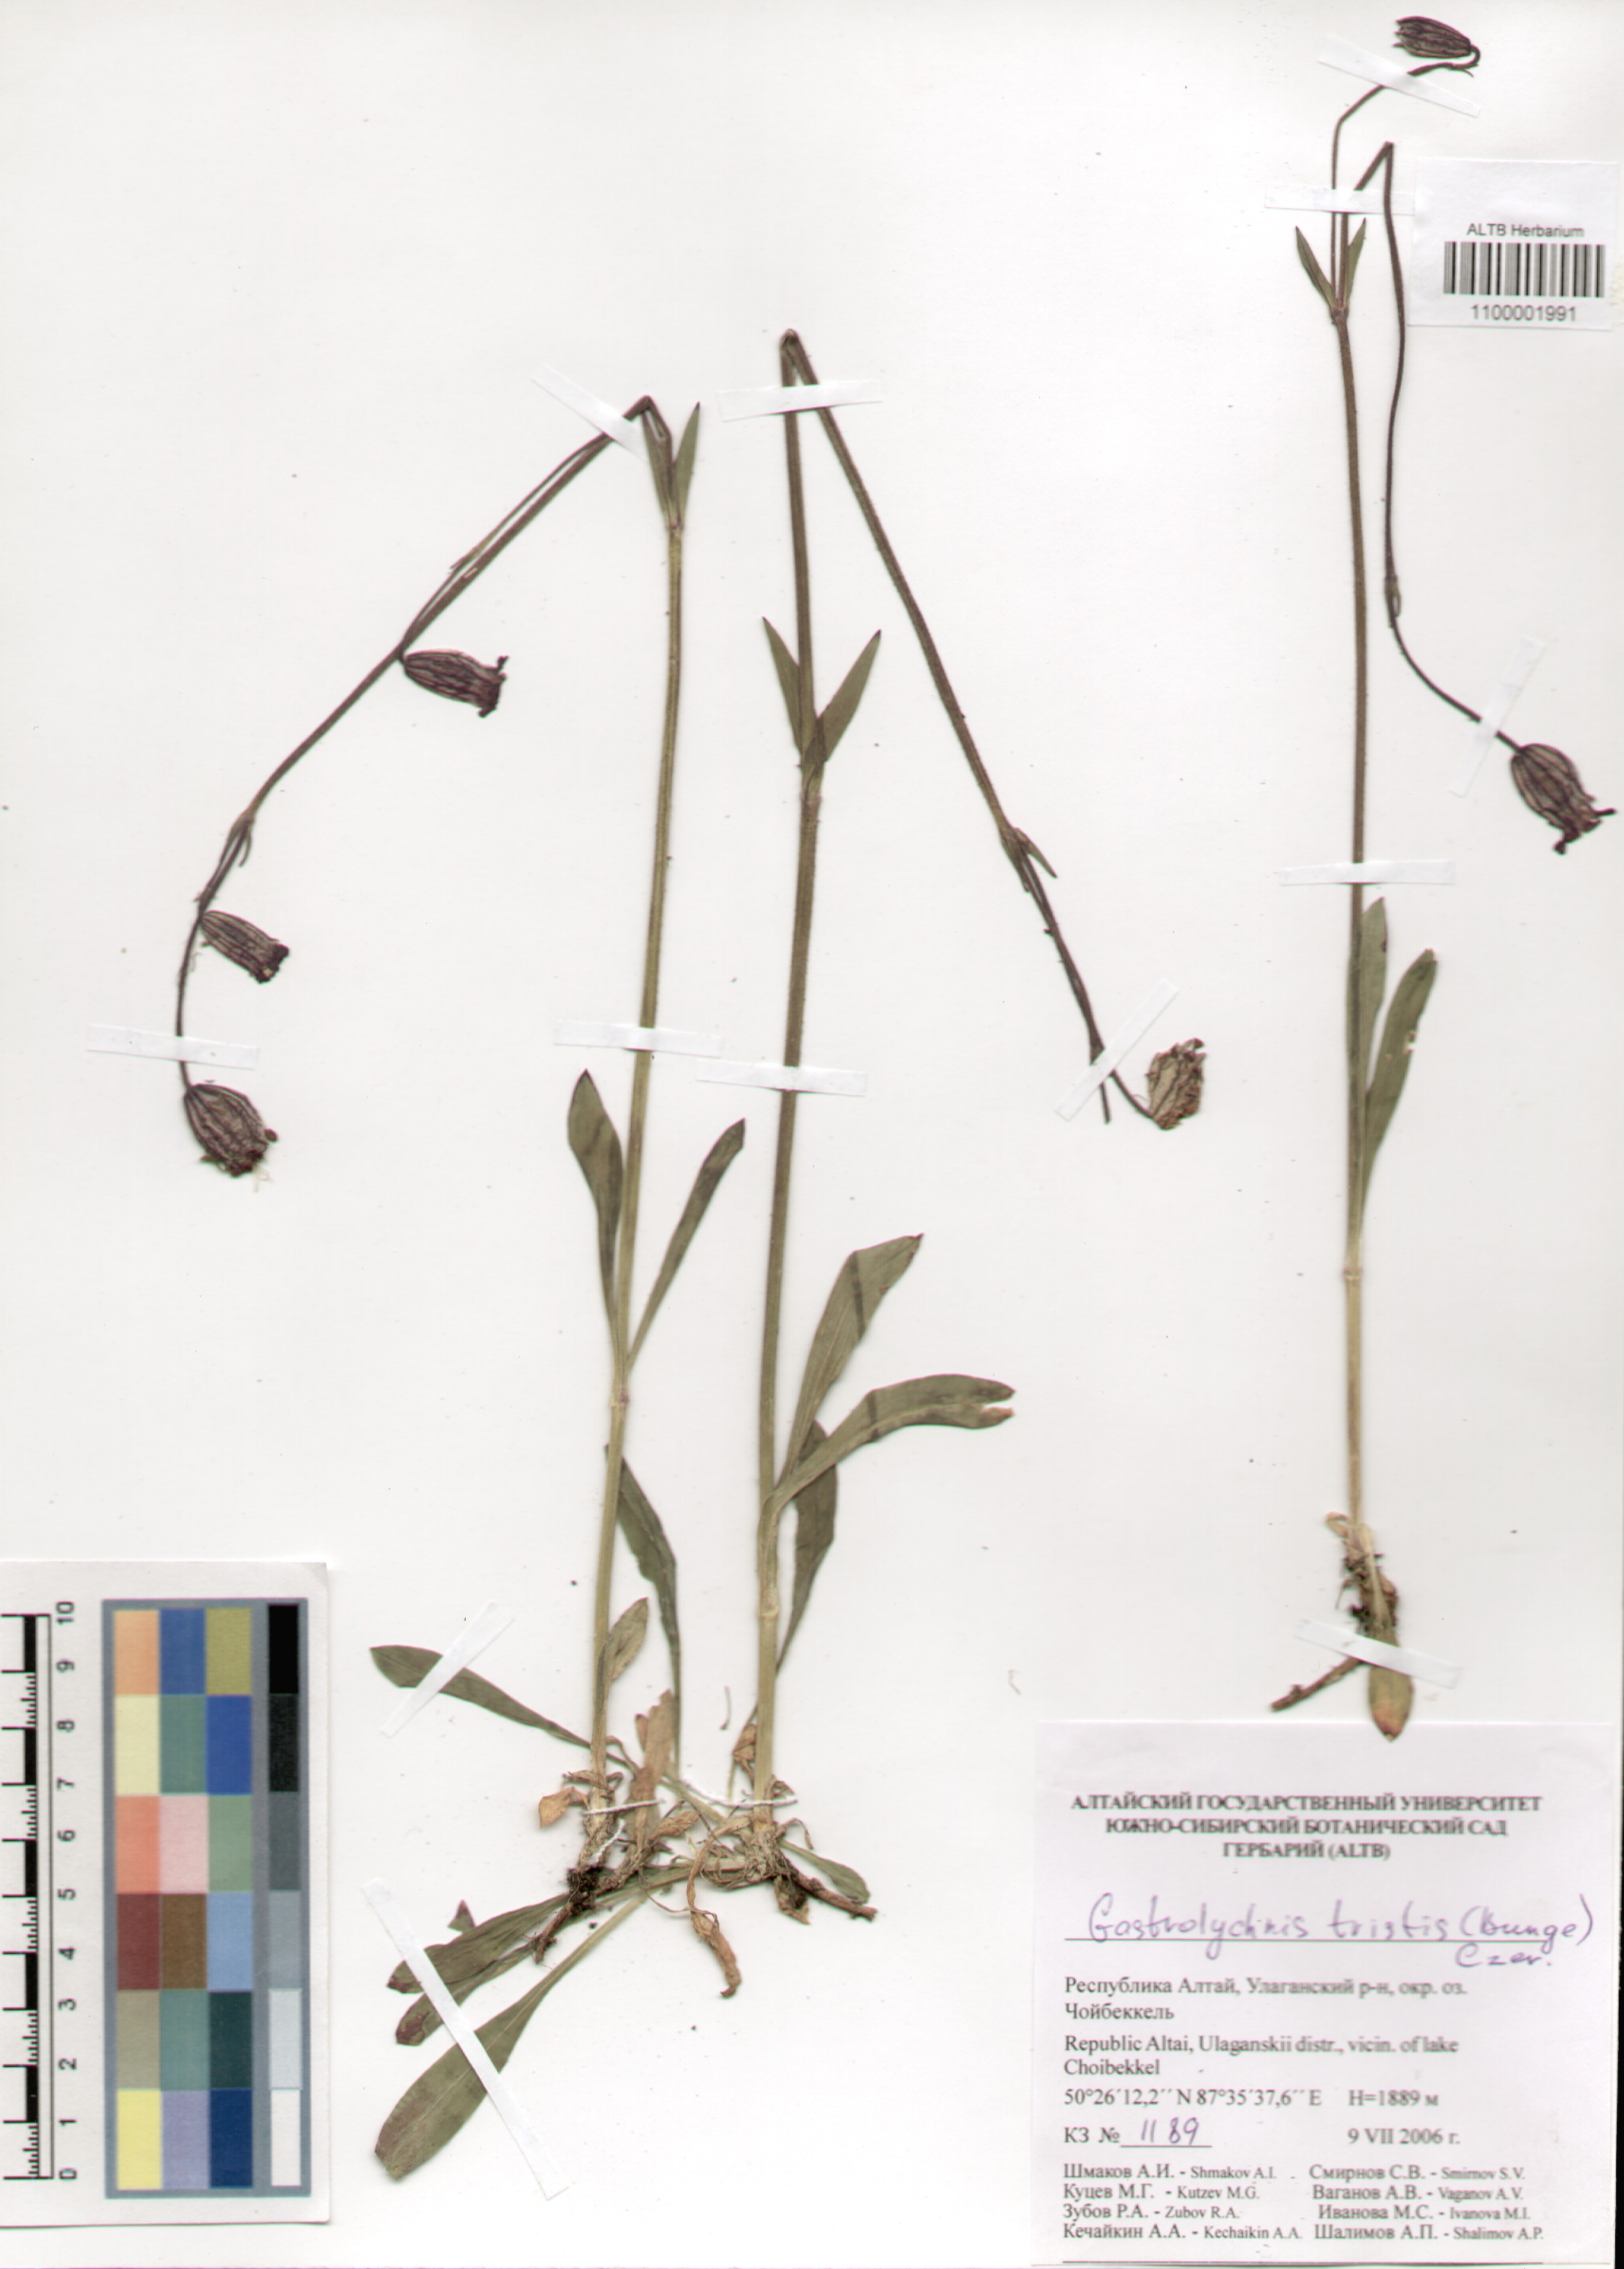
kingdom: Plantae
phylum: Tracheophyta
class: Magnoliopsida
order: Caryophyllales
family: Caryophyllaceae
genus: Silene
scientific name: Silene bungei
